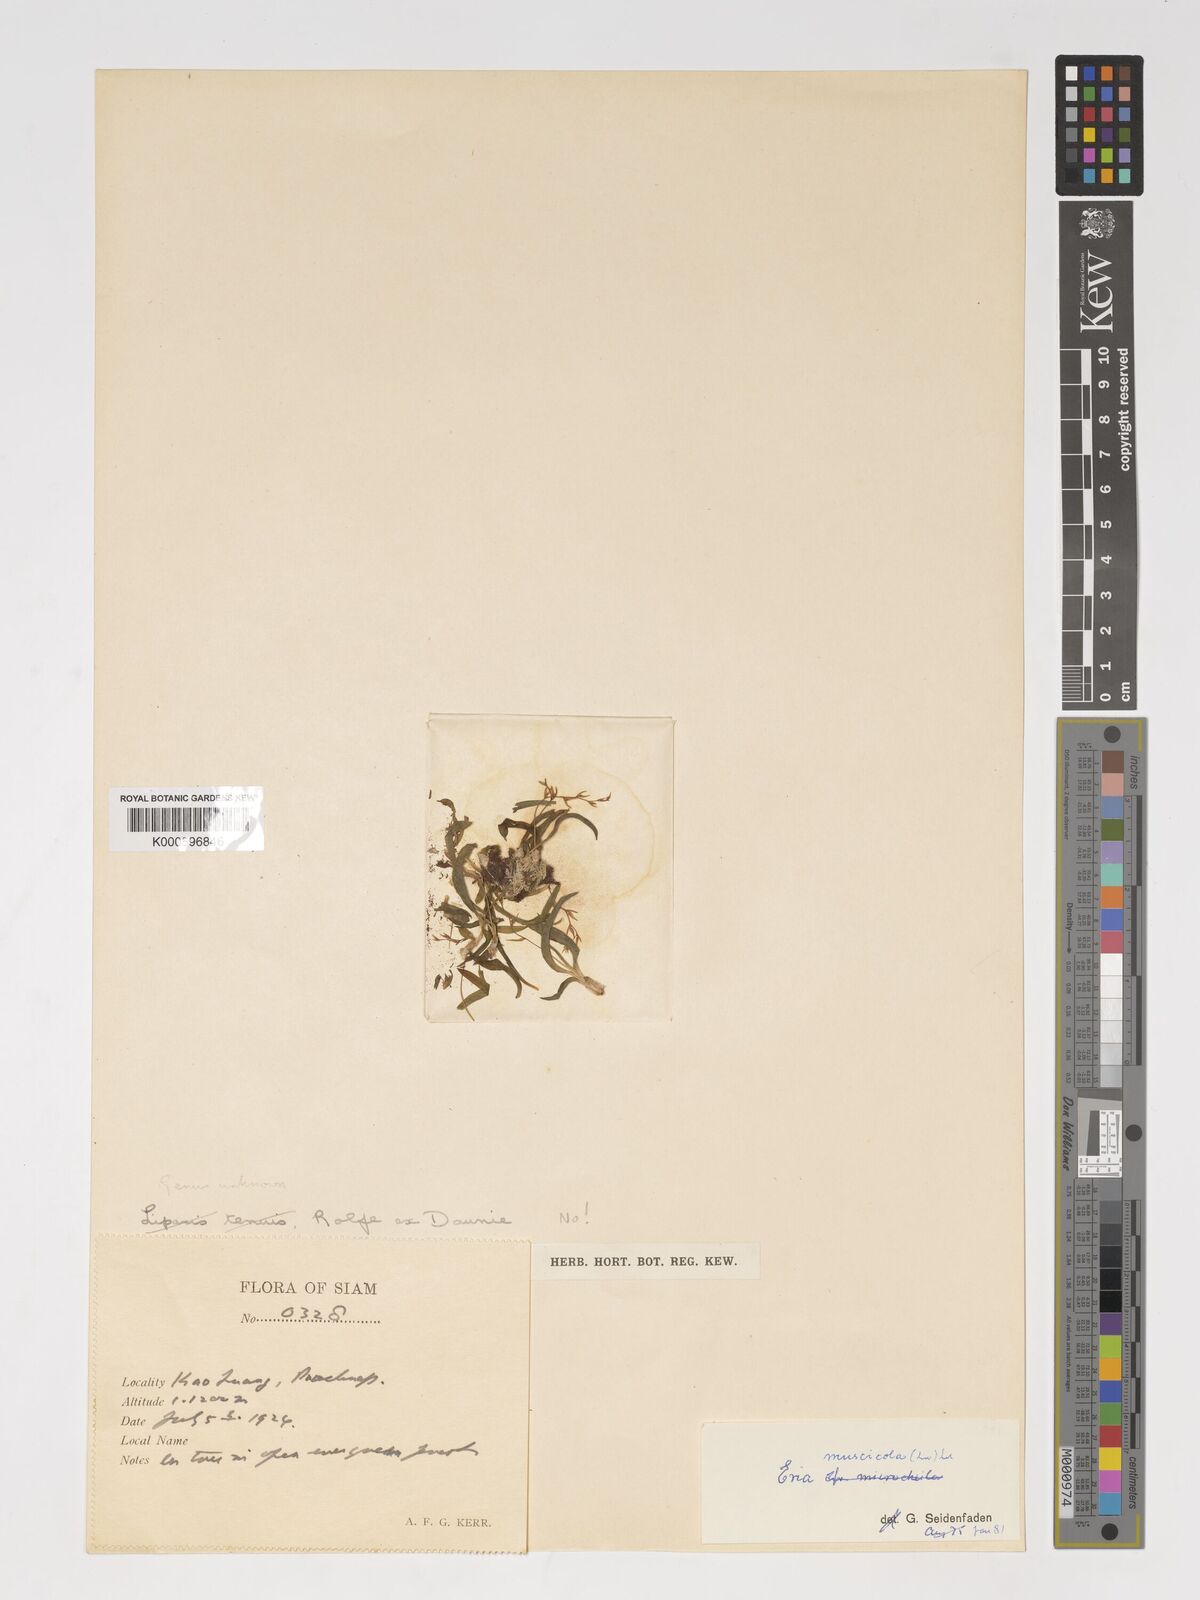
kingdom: Plantae
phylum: Tracheophyta
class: Liliopsida
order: Asparagales
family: Orchidaceae
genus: Porpax
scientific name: Porpax parviflorum
